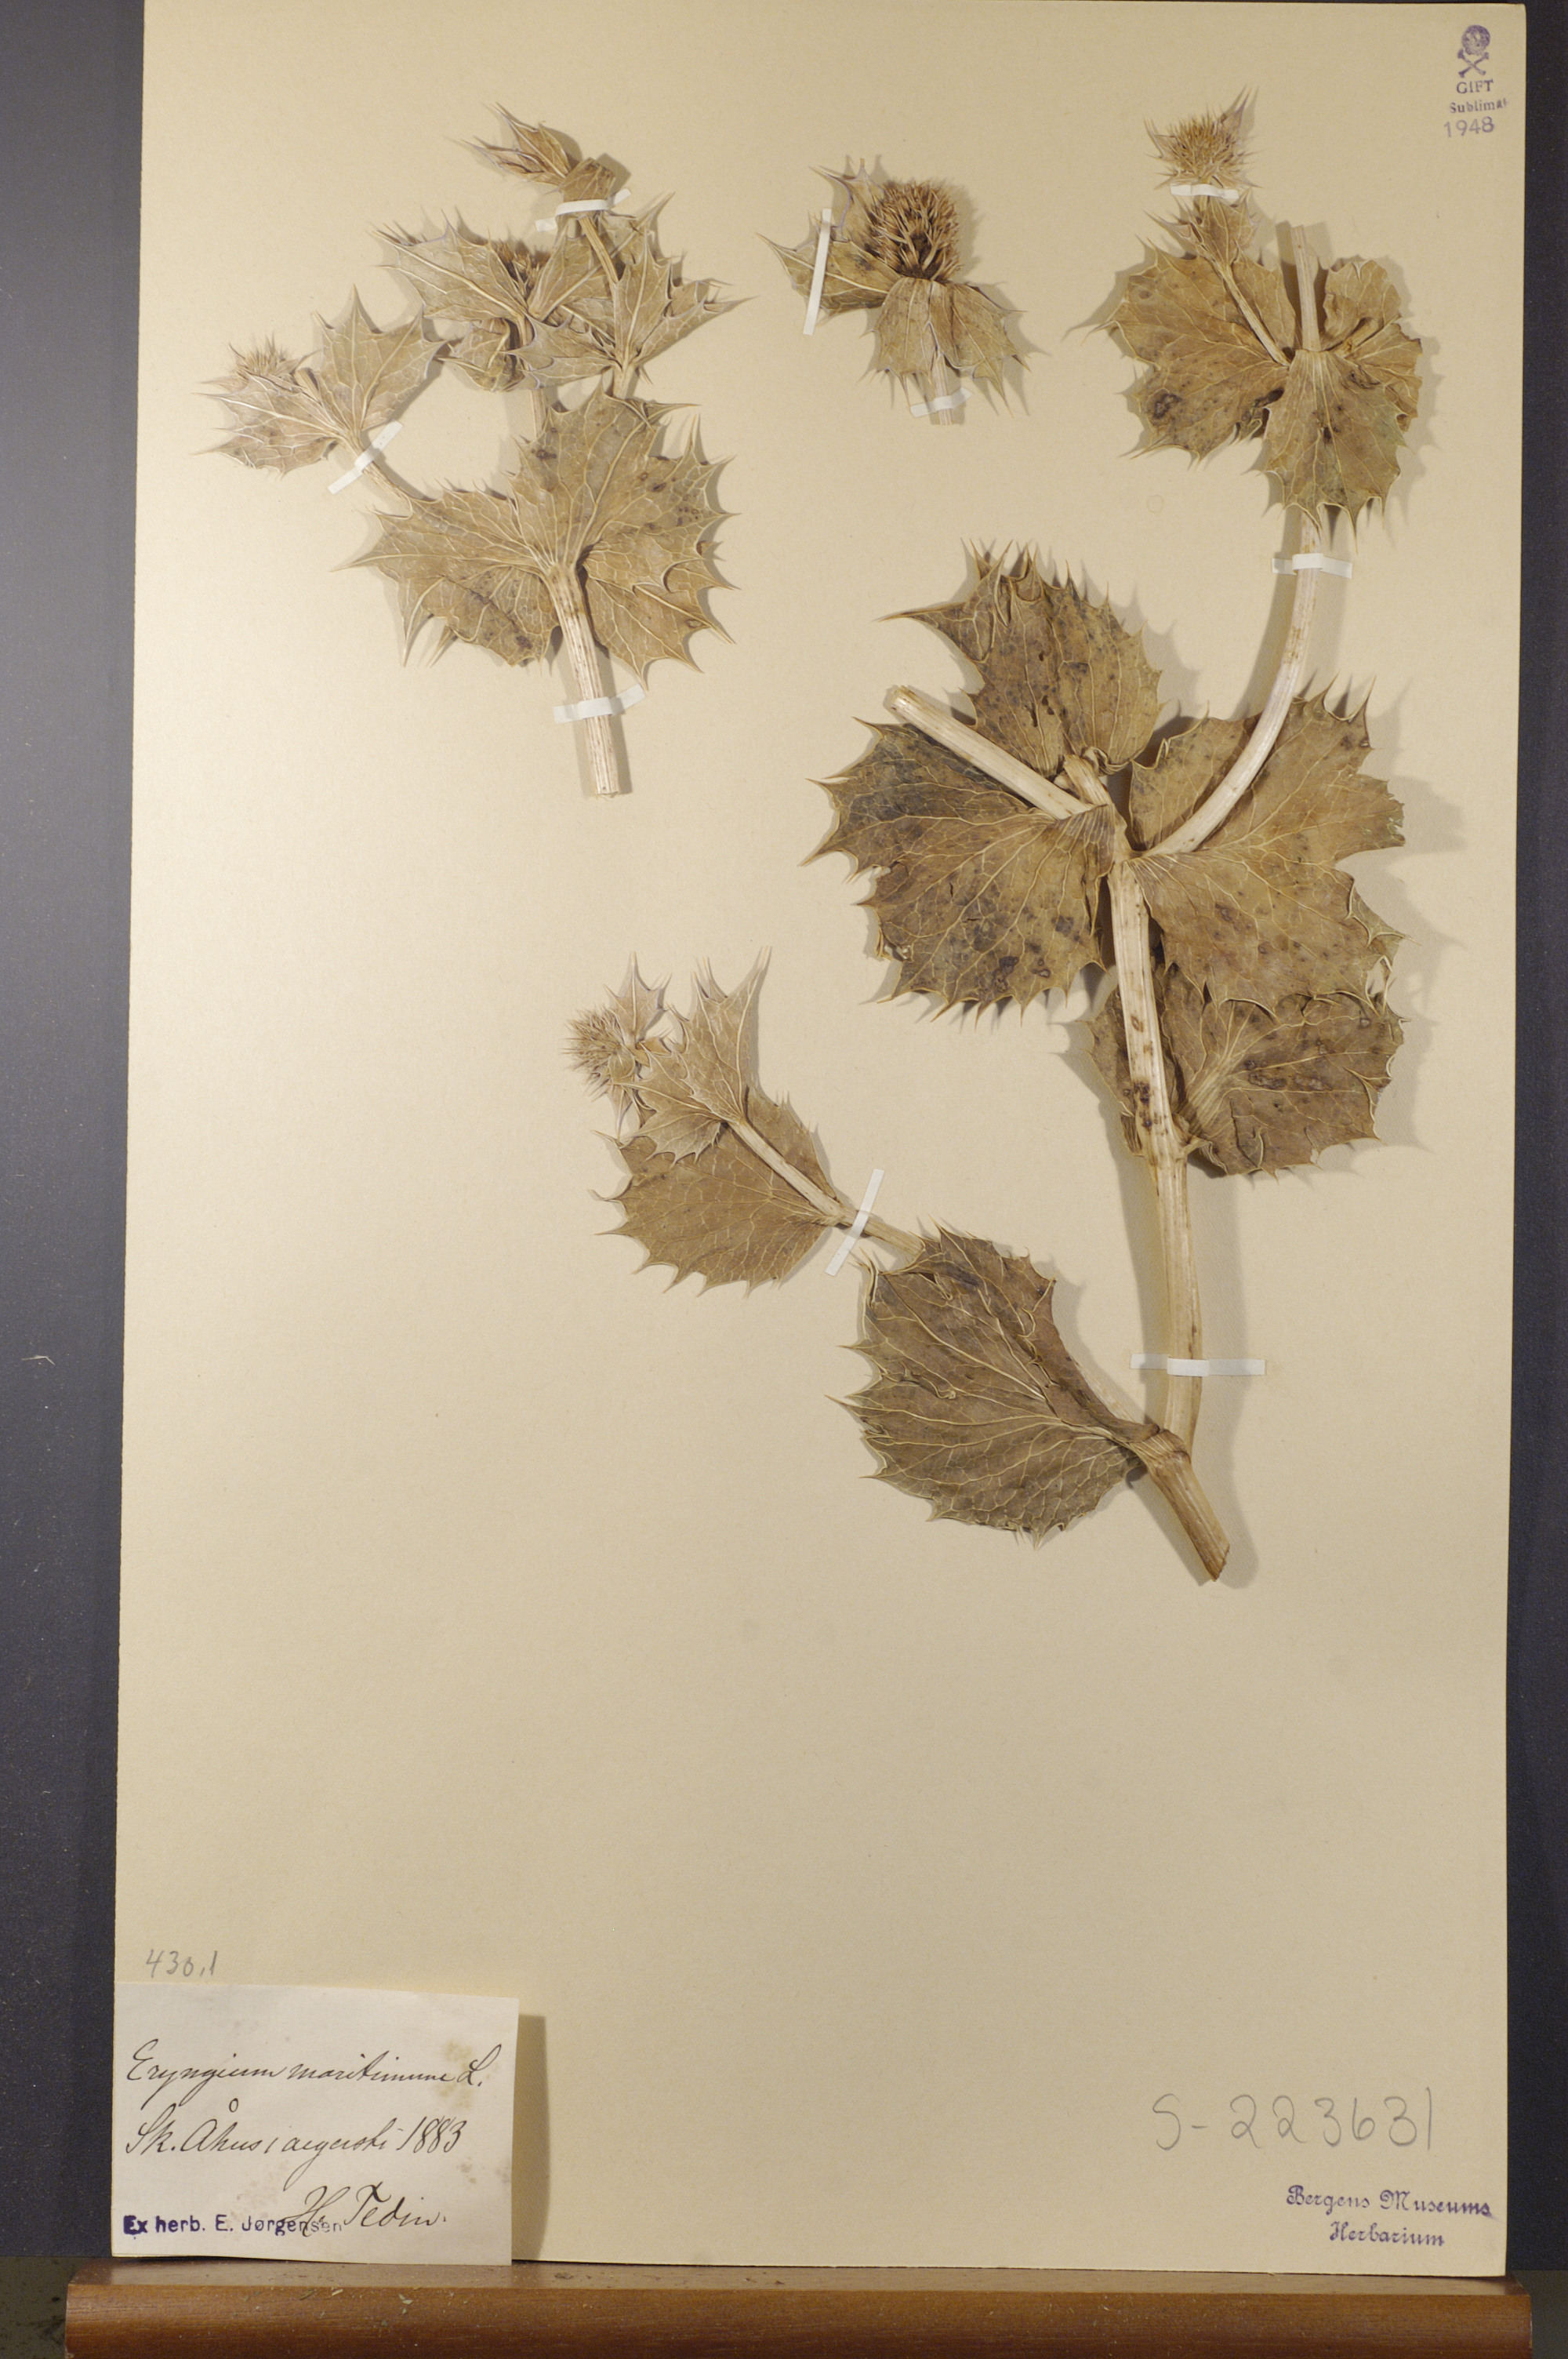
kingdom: Plantae
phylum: Tracheophyta
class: Magnoliopsida
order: Apiales
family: Apiaceae
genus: Eryngium
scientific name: Eryngium maritimum
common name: Sea-holly
